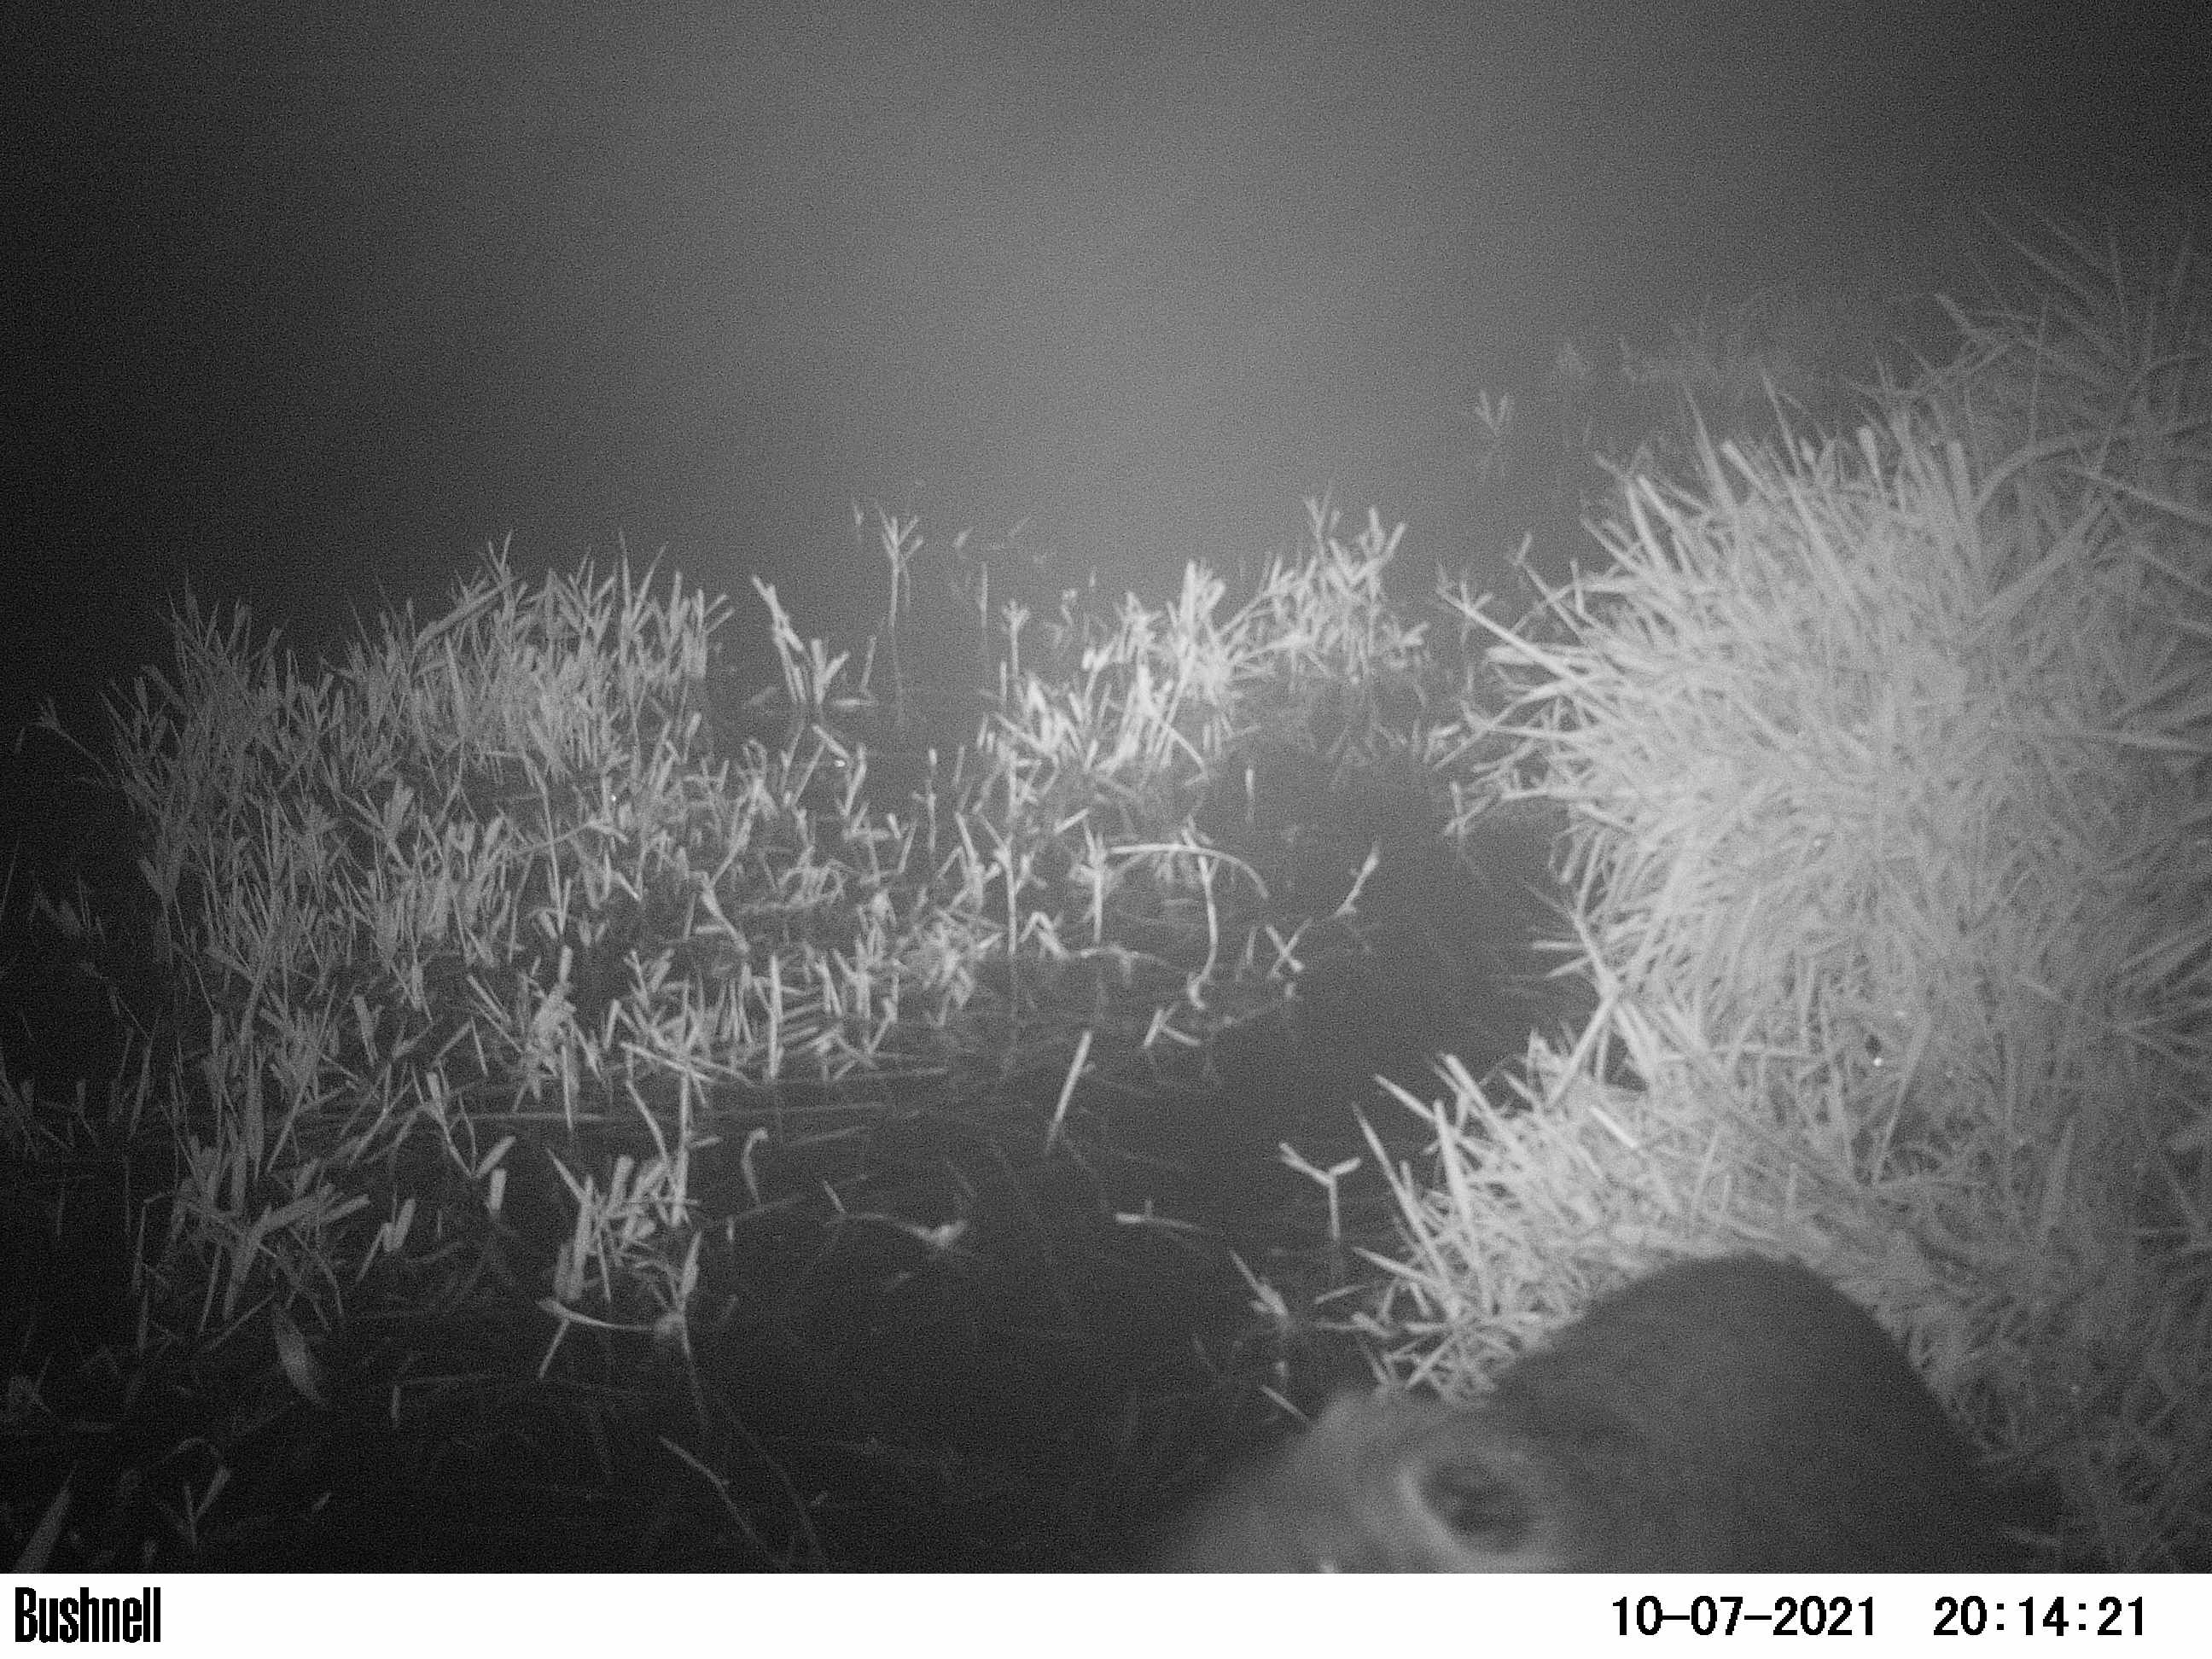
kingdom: Animalia
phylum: Chordata
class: Mammalia
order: Rodentia
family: Myocastoridae
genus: Myocastor
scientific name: Myocastor coypus
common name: Coypu
